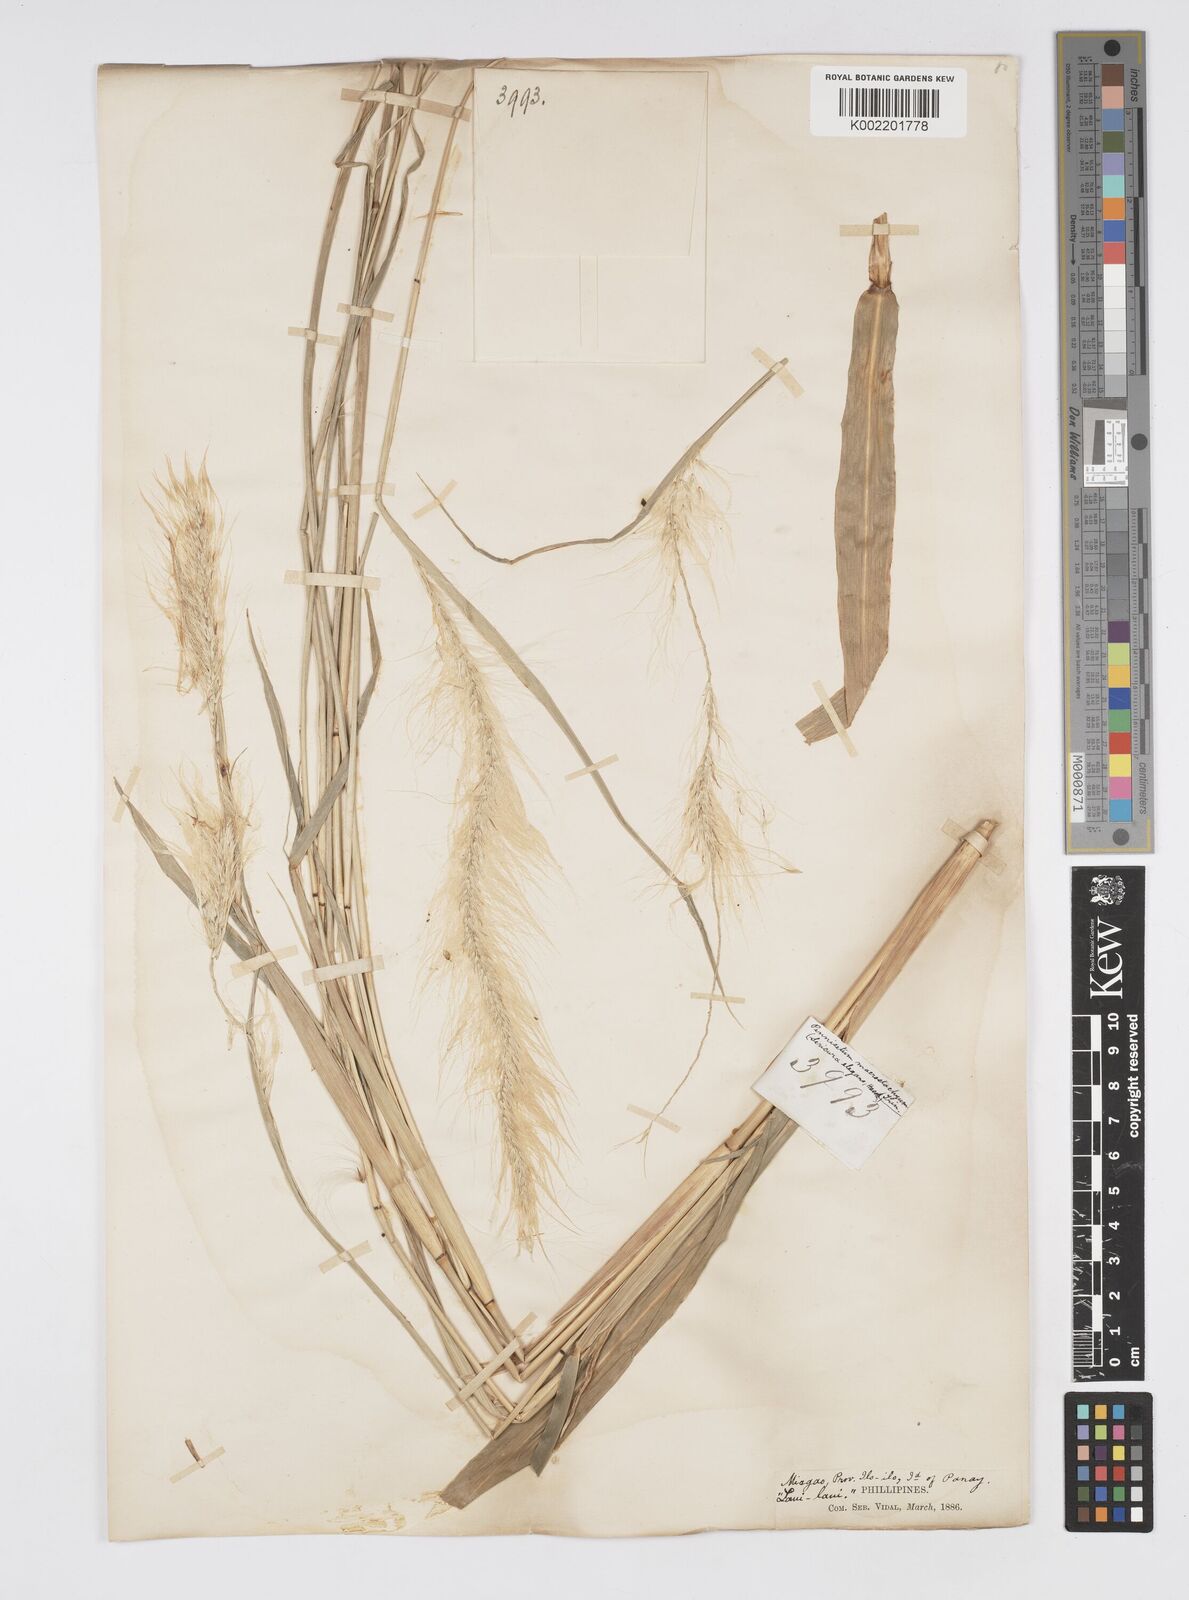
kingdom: Plantae
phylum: Tracheophyta
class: Liliopsida
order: Poales
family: Poaceae
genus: Cenchrus
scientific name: Cenchrus purpureus
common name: Elephant grass
